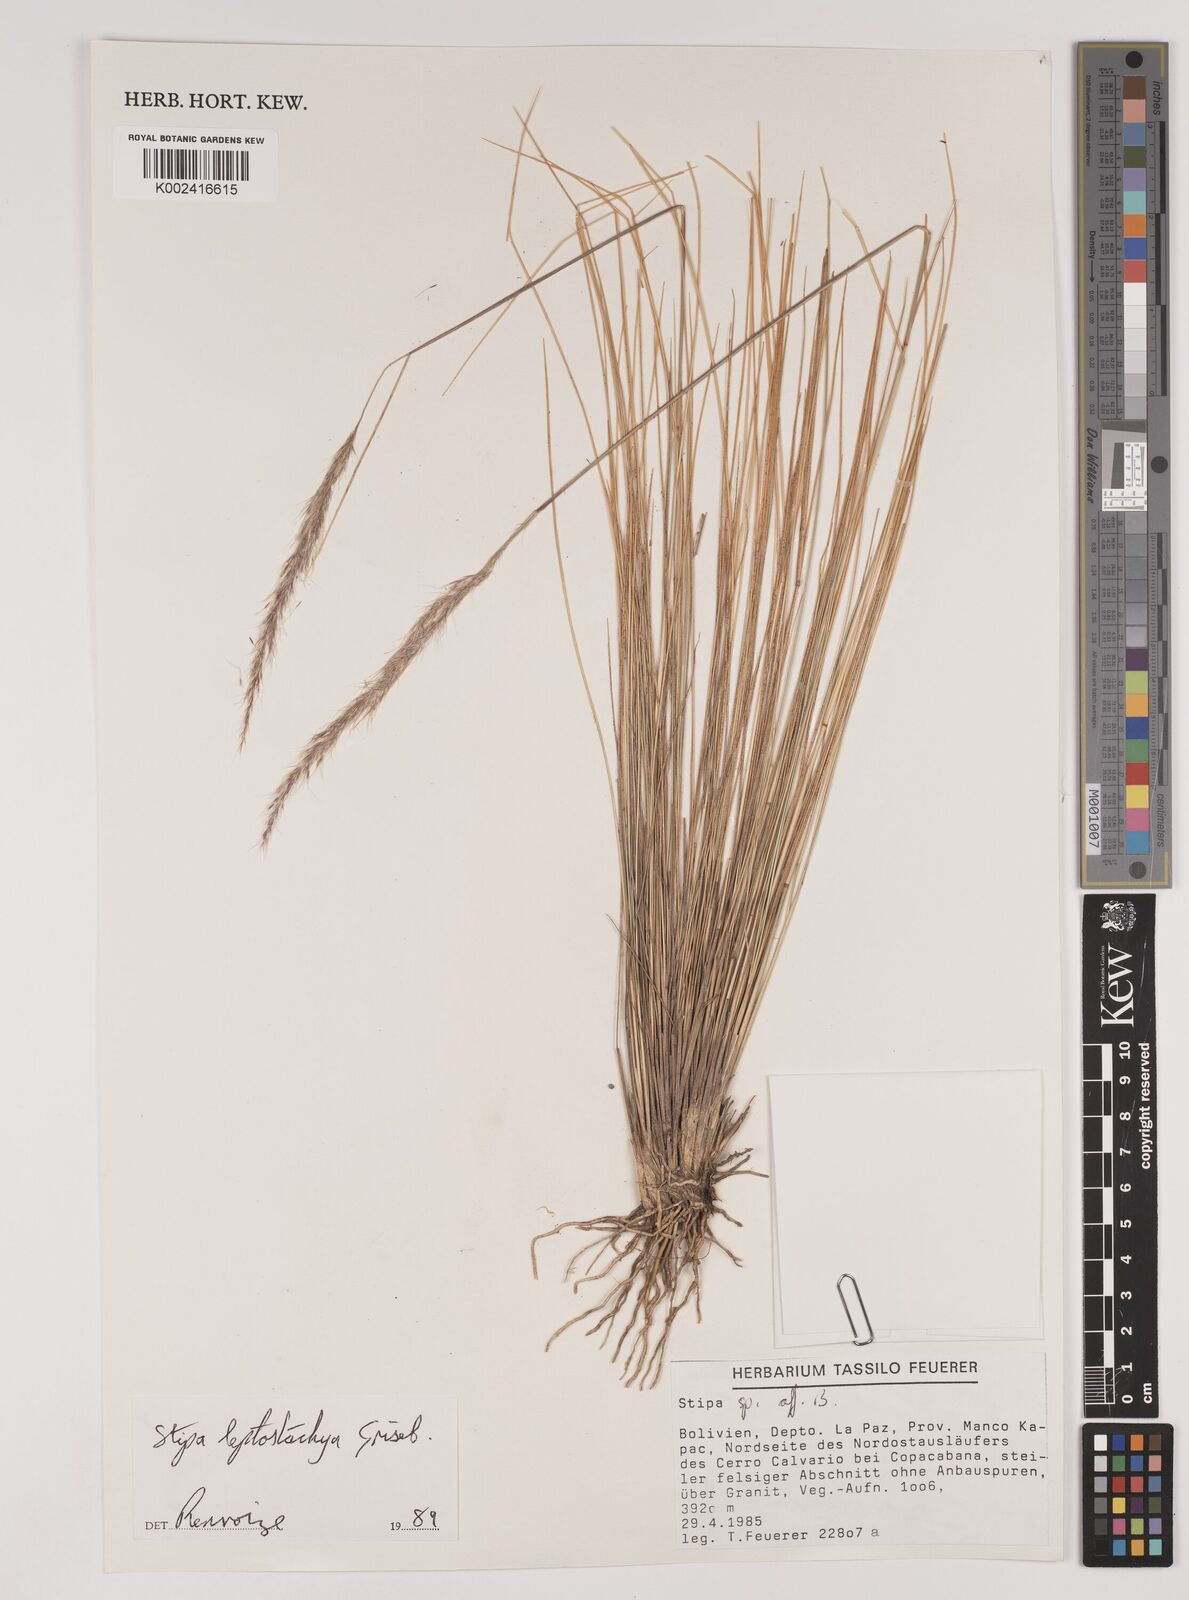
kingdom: Plantae
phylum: Tracheophyta
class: Liliopsida
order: Poales
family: Poaceae
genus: Austrostipa
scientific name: Austrostipa tenuifolia
